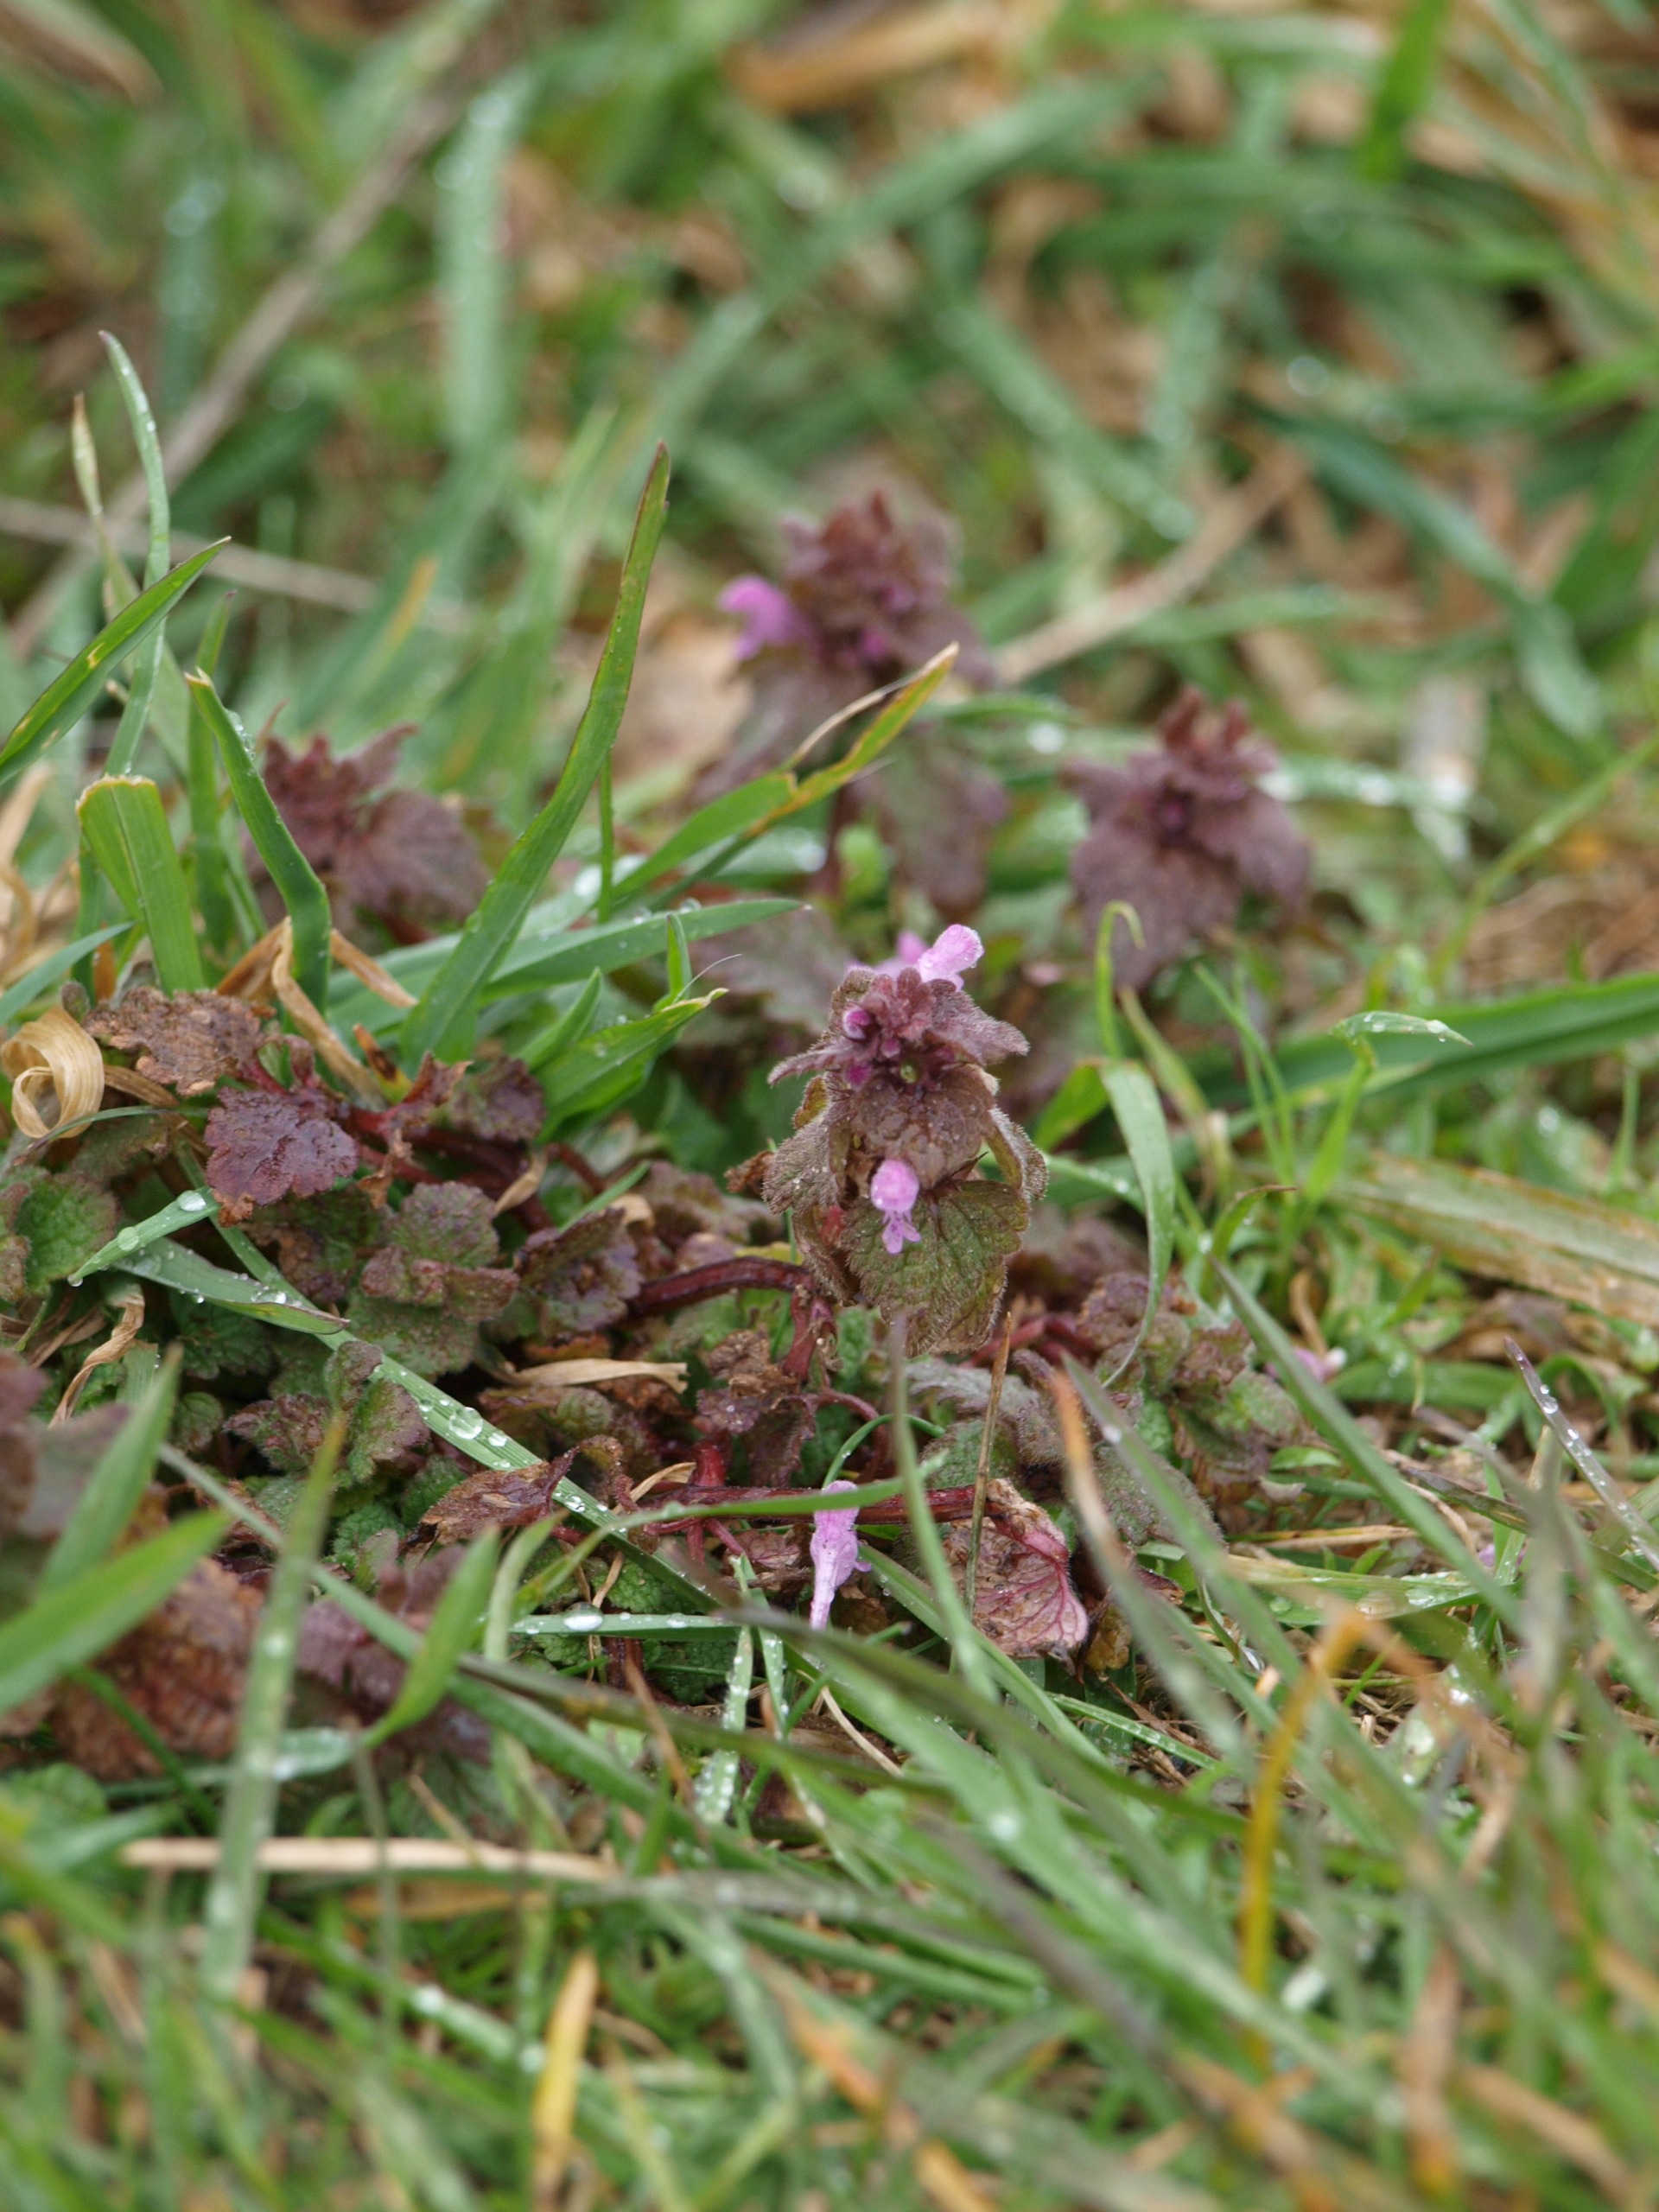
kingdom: Plantae
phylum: Tracheophyta
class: Magnoliopsida
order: Lamiales
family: Lamiaceae
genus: Lamium
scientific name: Lamium purpureum
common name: Rød tvetand
